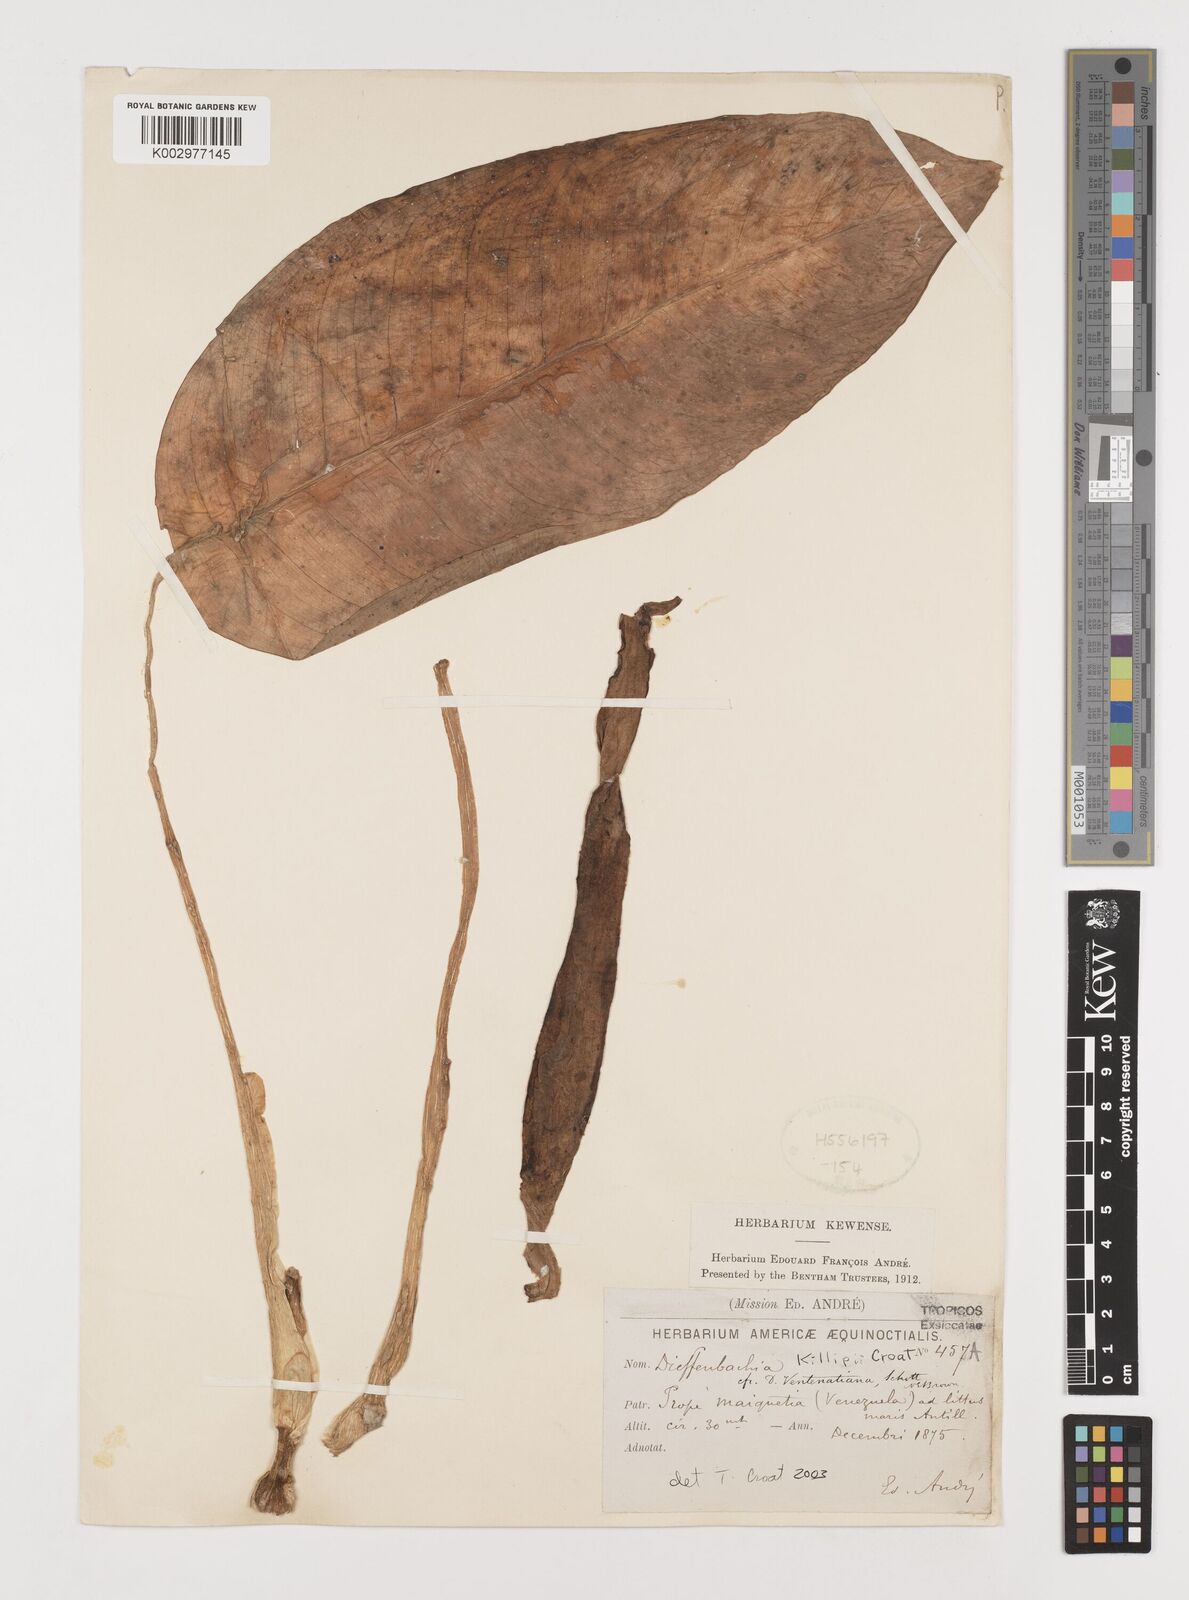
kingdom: Plantae
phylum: Tracheophyta
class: Liliopsida
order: Alismatales
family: Araceae
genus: Dieffenbachia
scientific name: Dieffenbachia killipii
